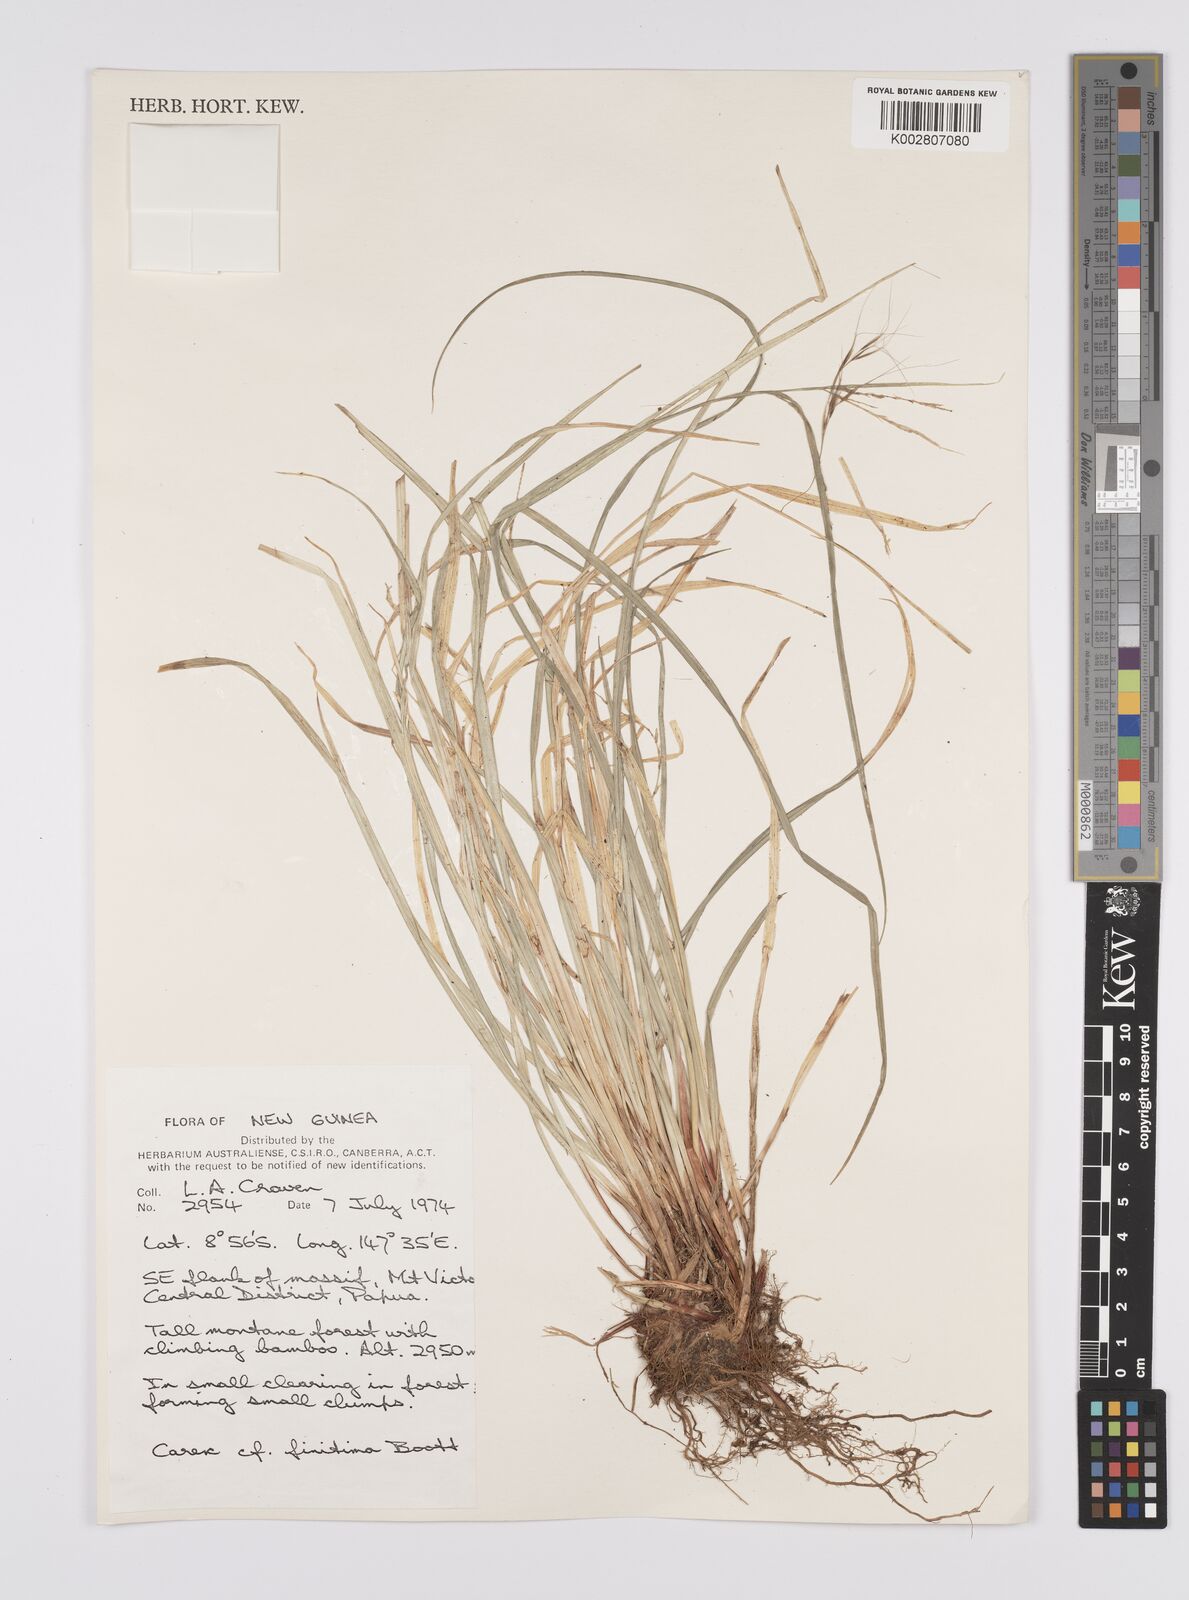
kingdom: Plantae
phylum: Tracheophyta
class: Liliopsida
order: Poales
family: Cyperaceae
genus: Carex
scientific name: Carex finitima
